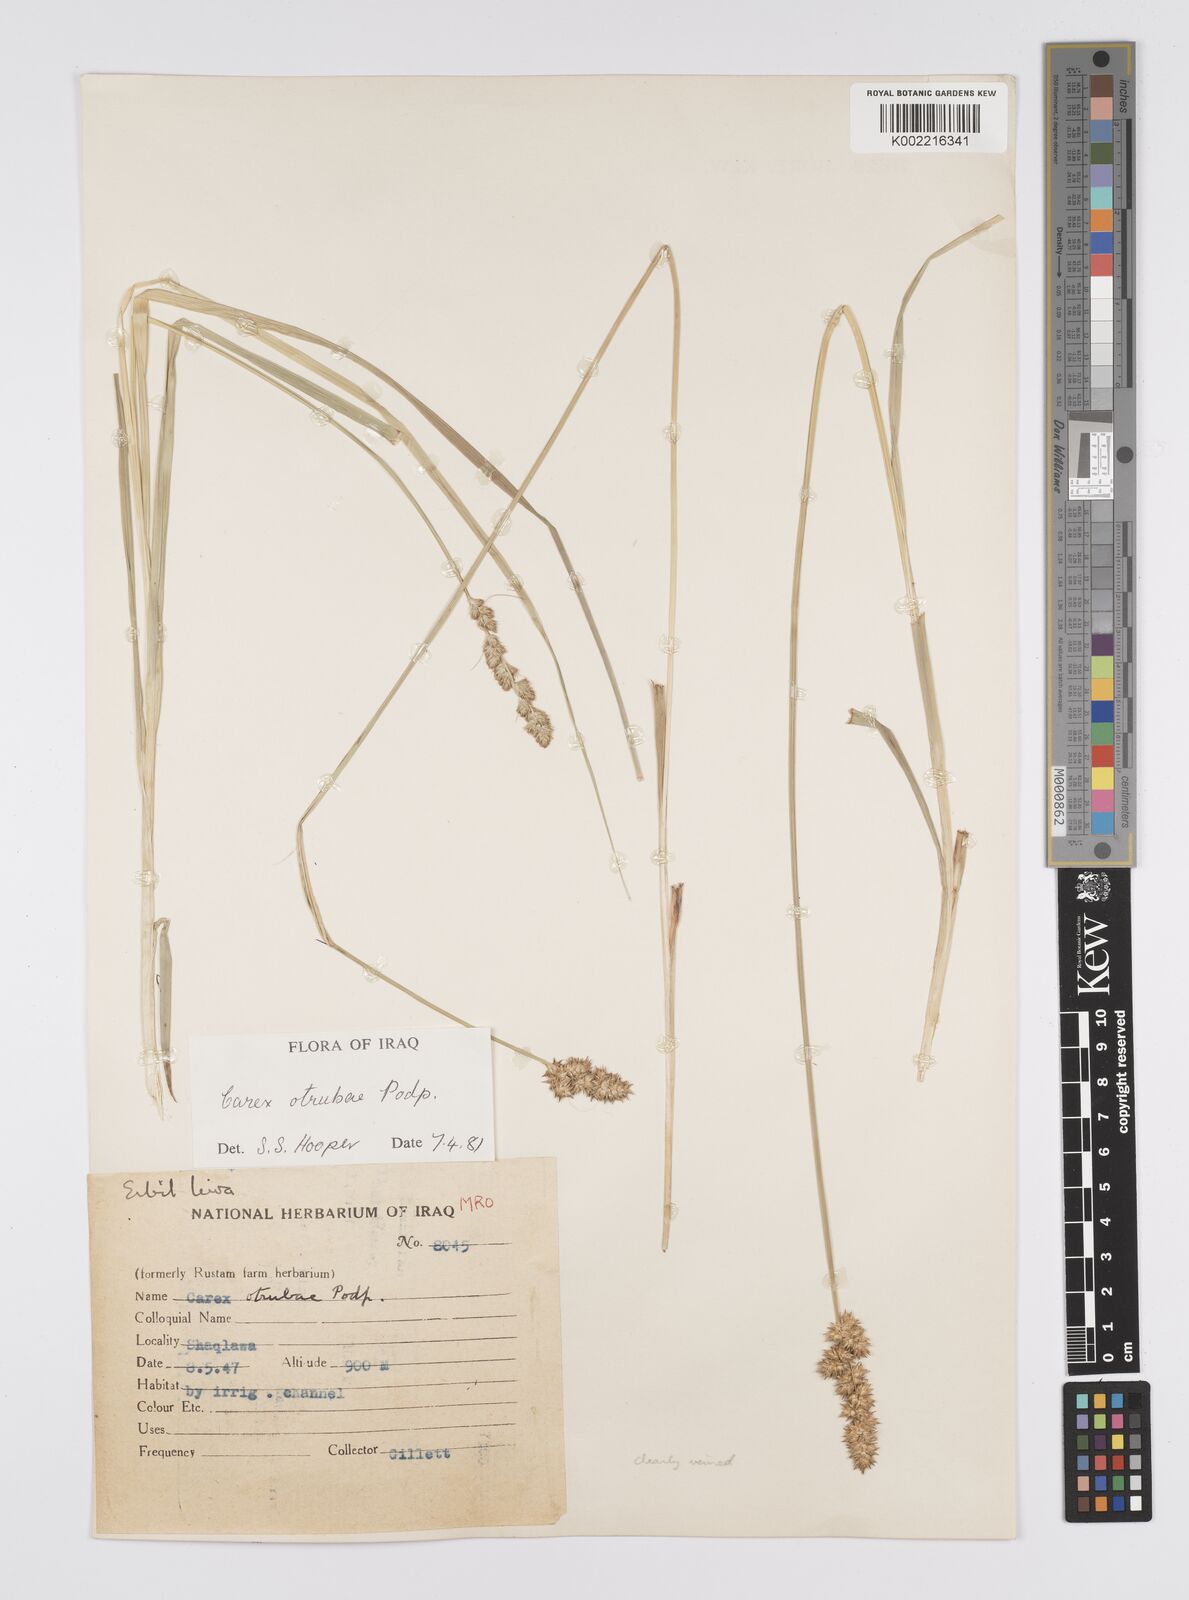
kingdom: Plantae
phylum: Tracheophyta
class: Liliopsida
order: Poales
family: Cyperaceae
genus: Carex
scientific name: Carex otrubae
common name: False fox-sedge
